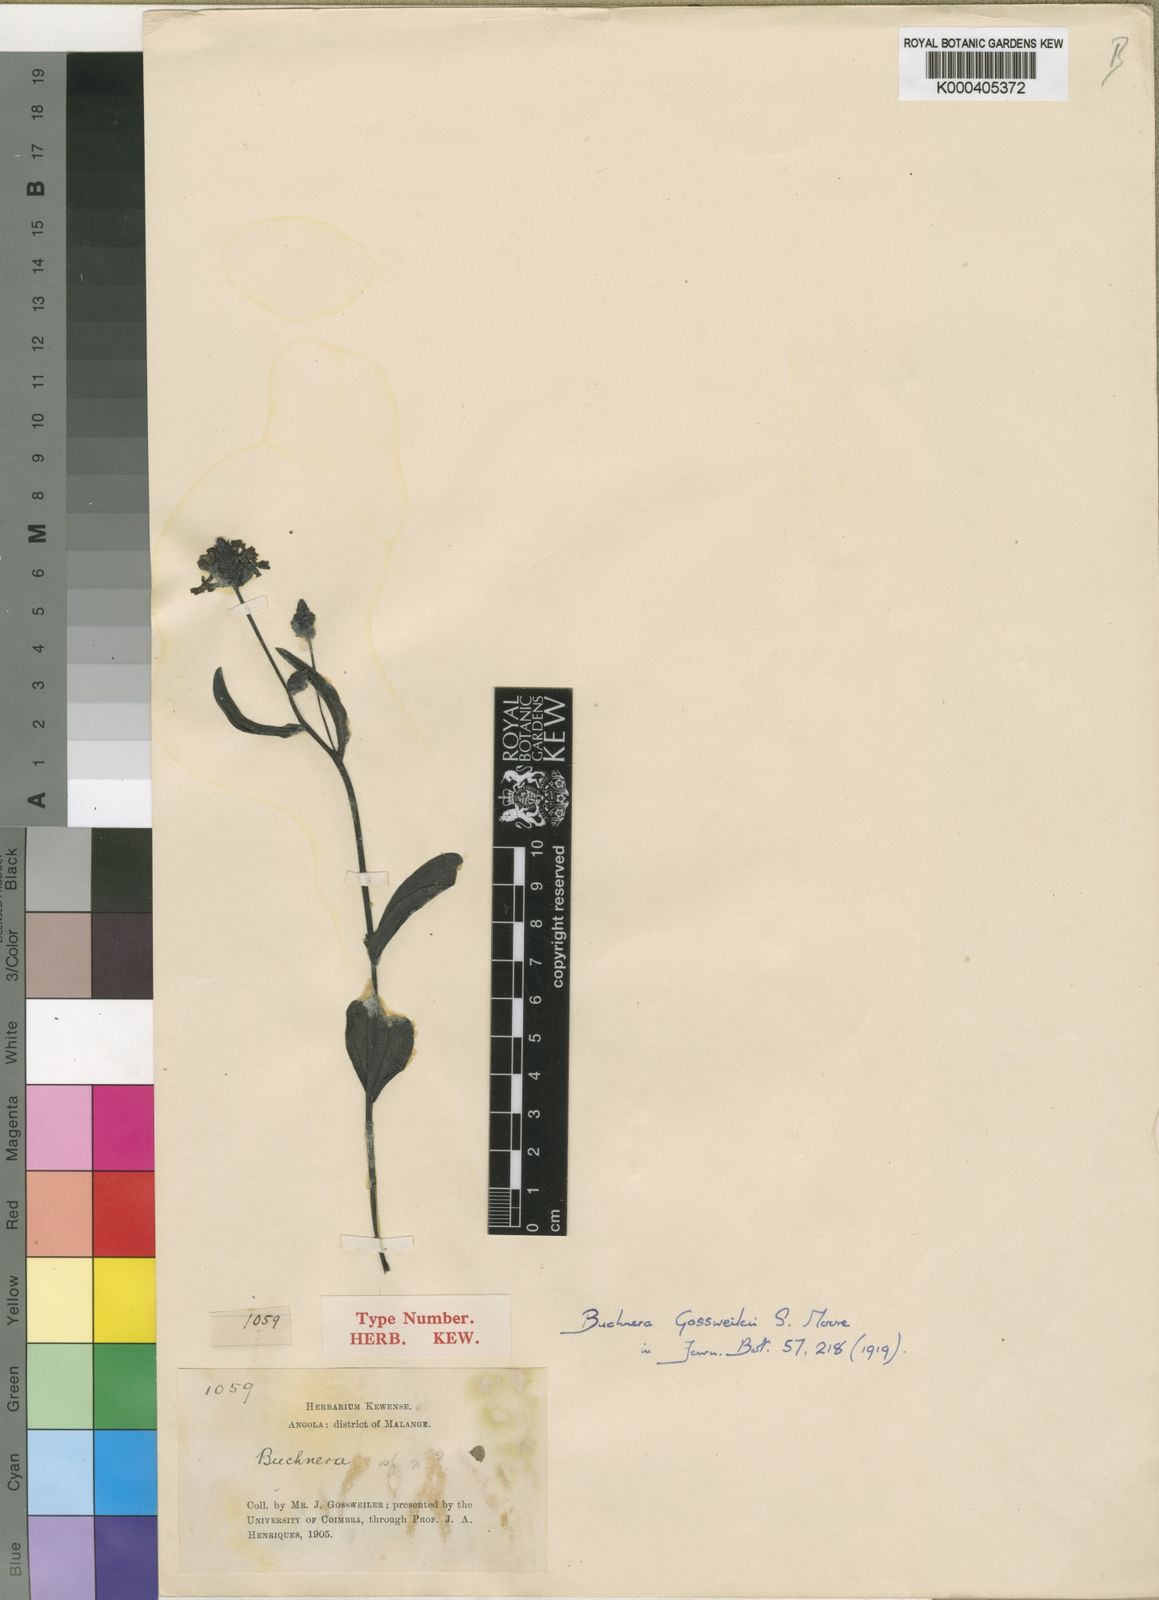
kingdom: Plantae
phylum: Tracheophyta
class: Magnoliopsida
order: Lamiales
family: Orobanchaceae
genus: Buchnera
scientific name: Buchnera gossweileri
